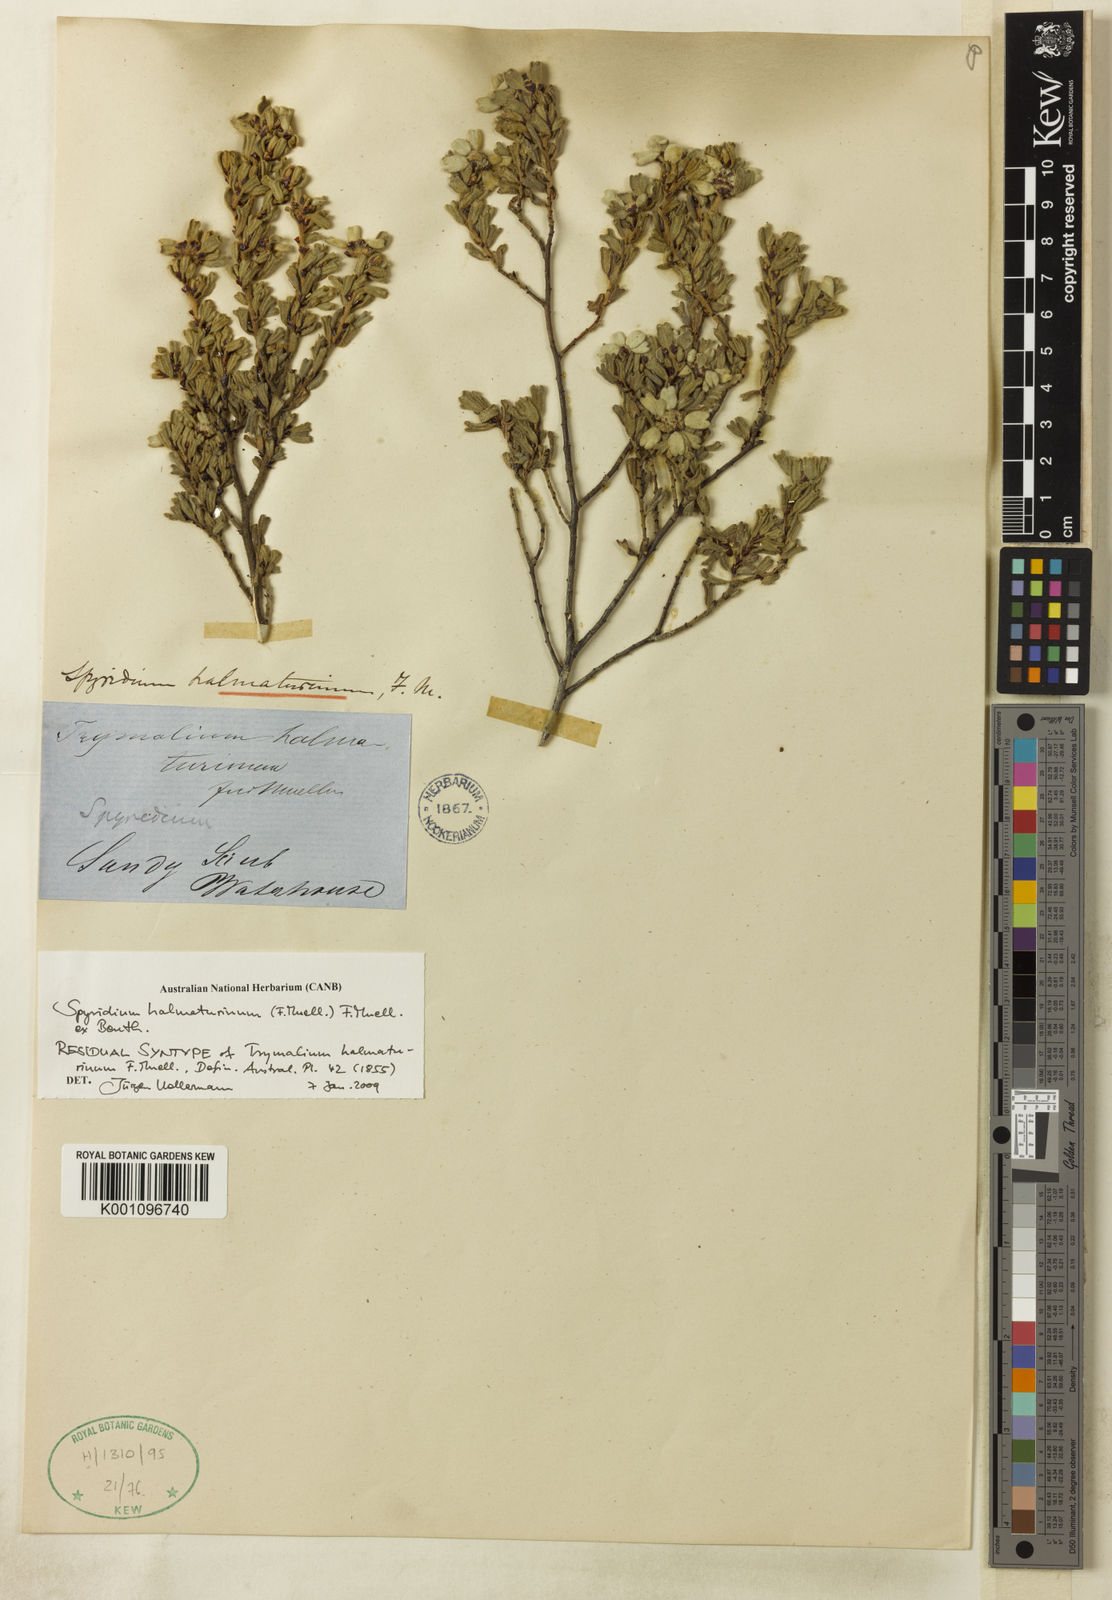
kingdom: Plantae
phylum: Tracheophyta
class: Magnoliopsida
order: Rosales
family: Rhamnaceae
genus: Spyridium
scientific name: Spyridium halmaturinum
